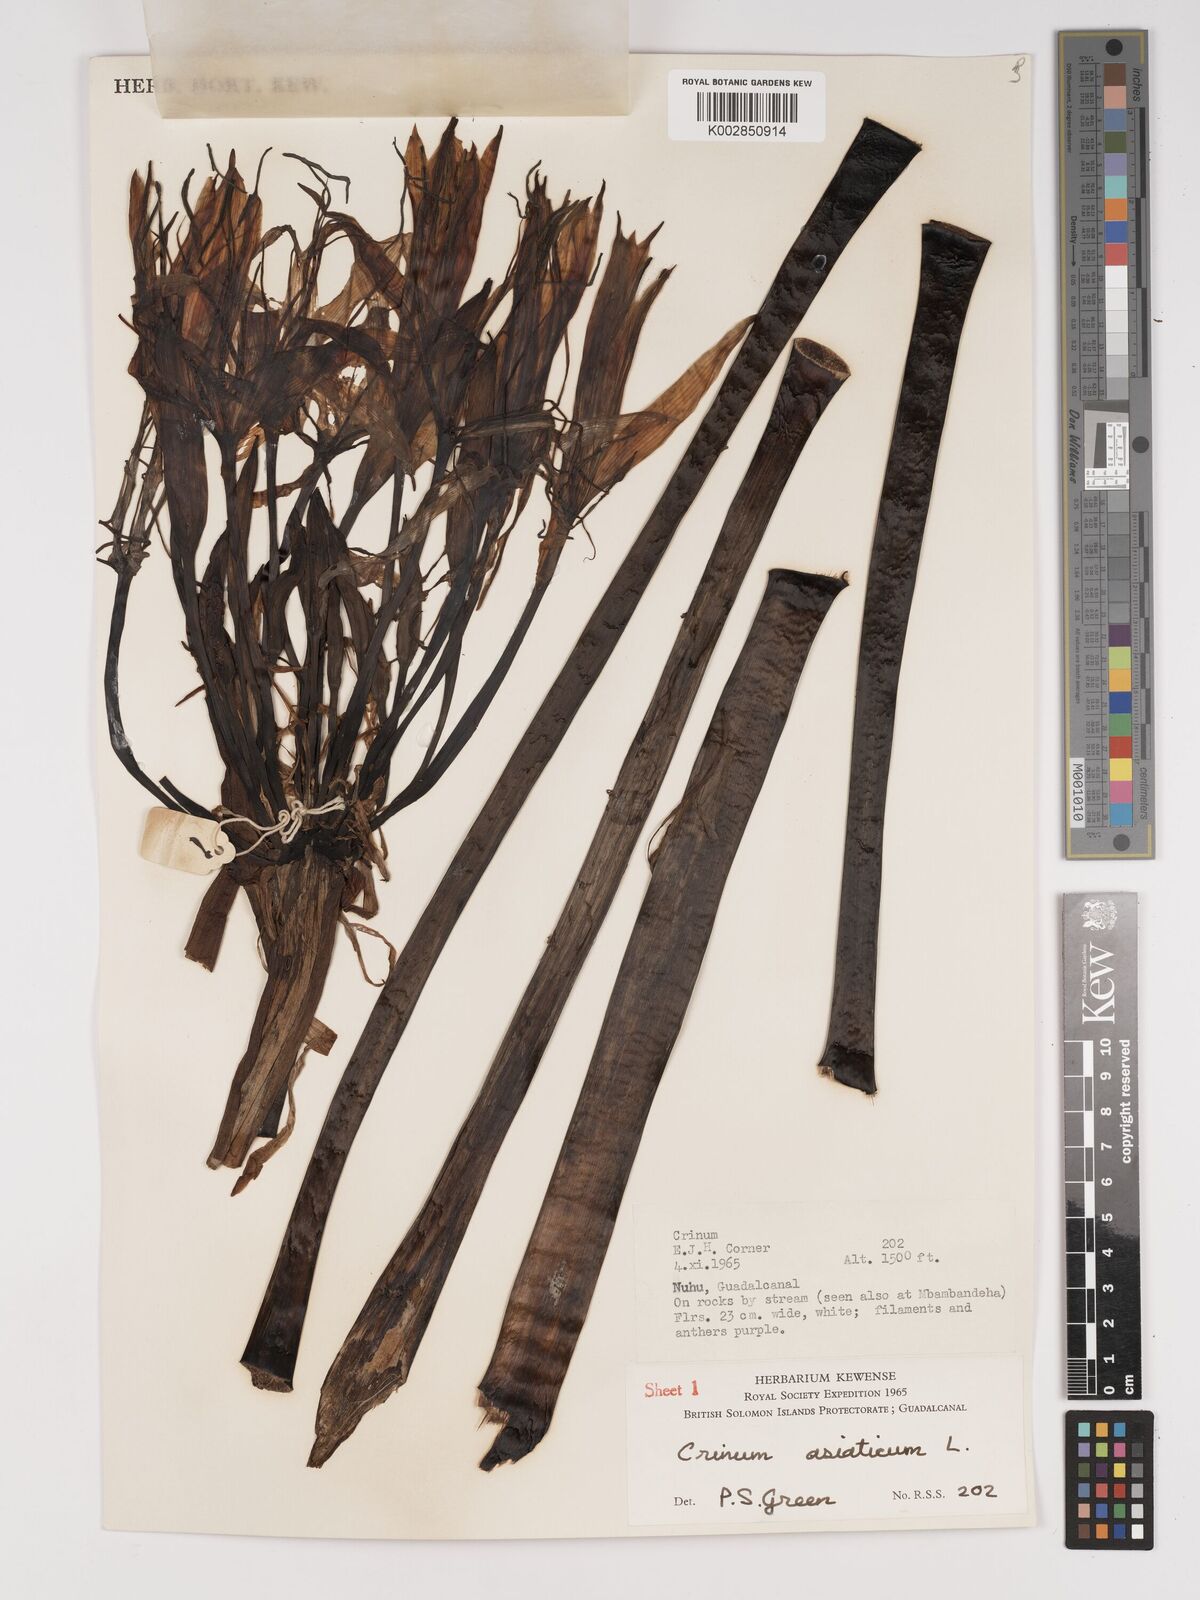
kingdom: Plantae
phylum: Tracheophyta
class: Liliopsida
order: Asparagales
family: Amaryllidaceae
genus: Crinum
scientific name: Crinum asiaticum
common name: Poisonbulb
